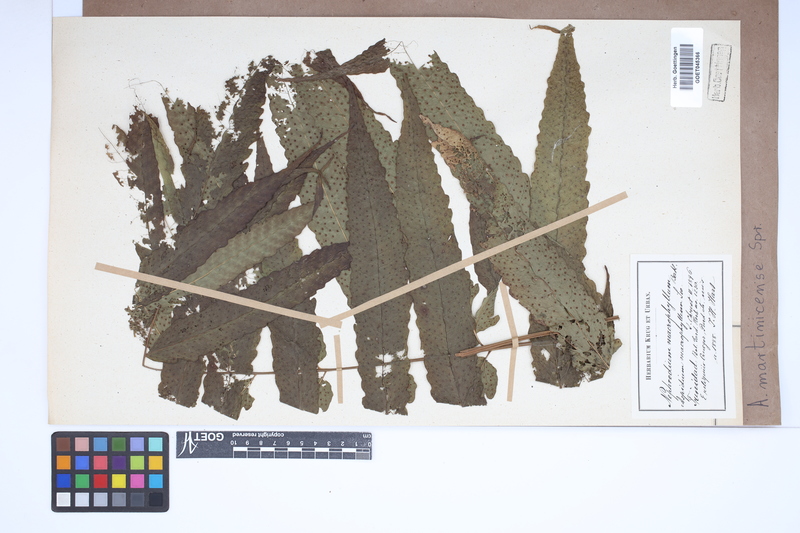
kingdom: Plantae
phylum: Tracheophyta
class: Polypodiopsida
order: Polypodiales
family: Tectariaceae
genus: Tectaria
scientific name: Tectaria incisa
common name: Incised halberd fern
